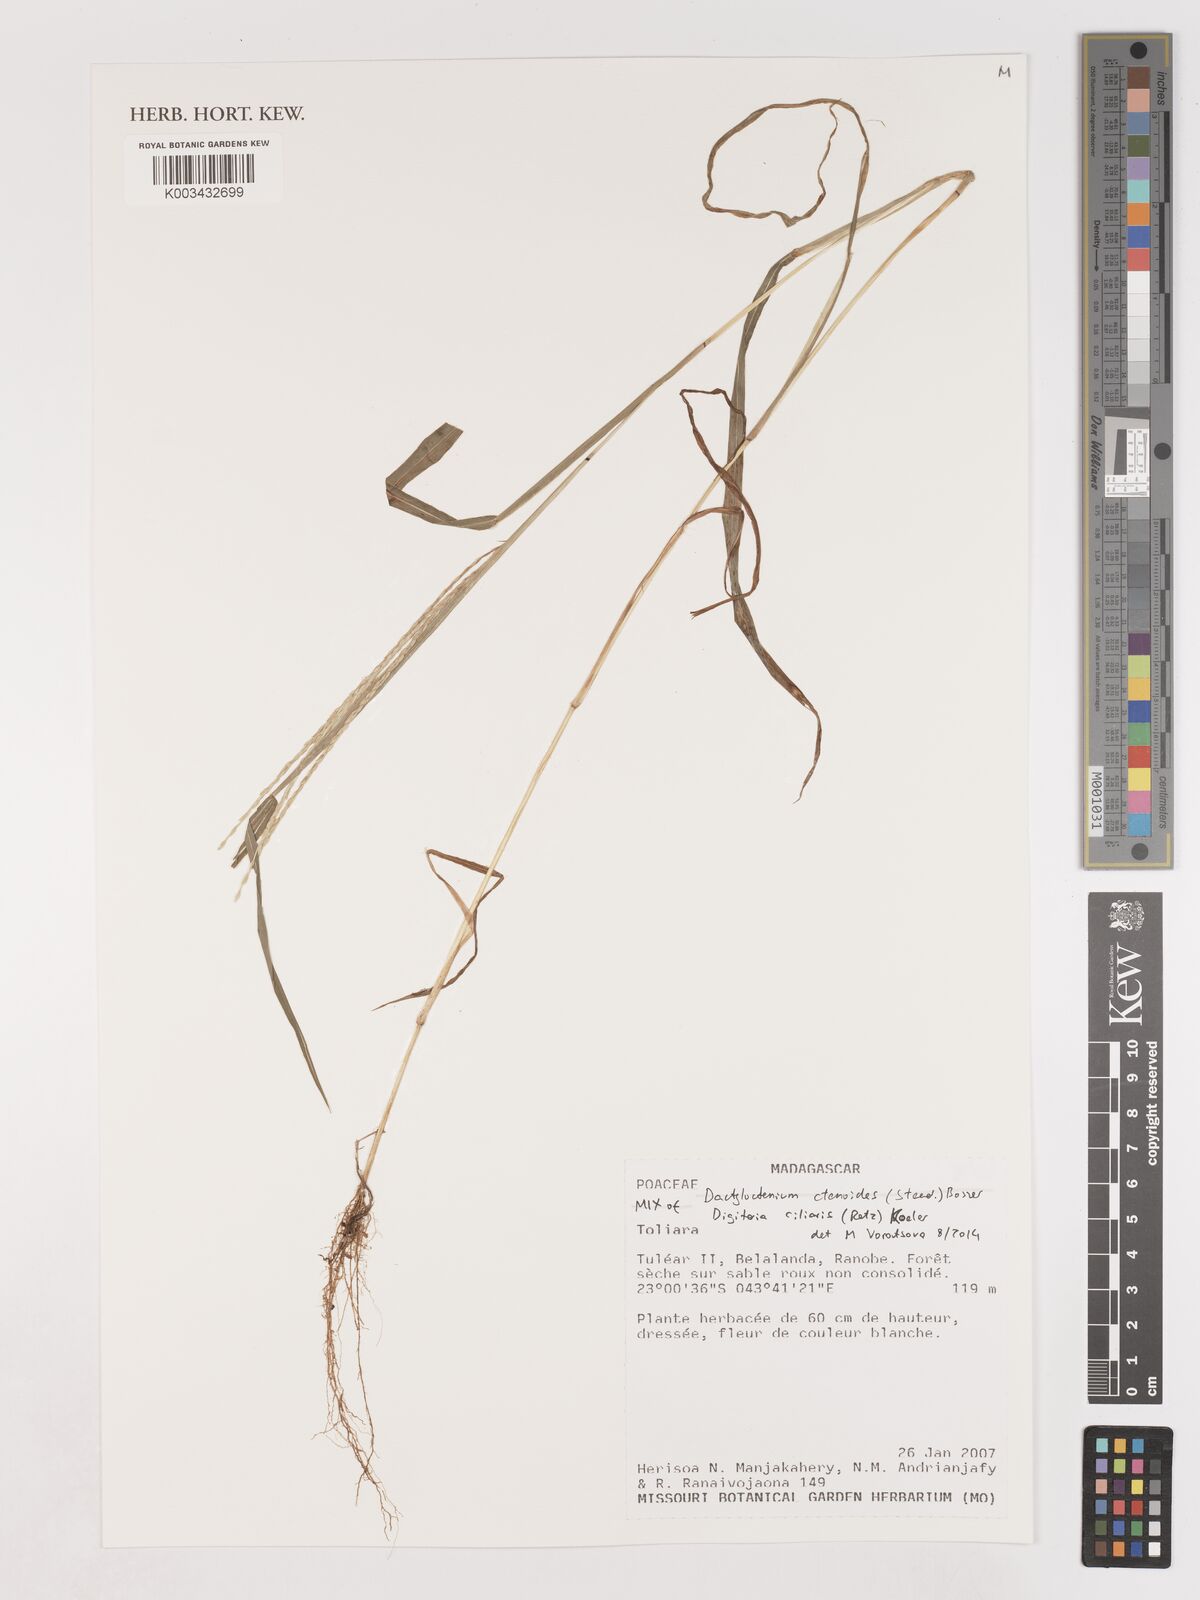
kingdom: Plantae
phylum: Tracheophyta
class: Liliopsida
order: Poales
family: Poaceae
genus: Digitaria
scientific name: Digitaria bicornis
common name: Asian crabgrass
